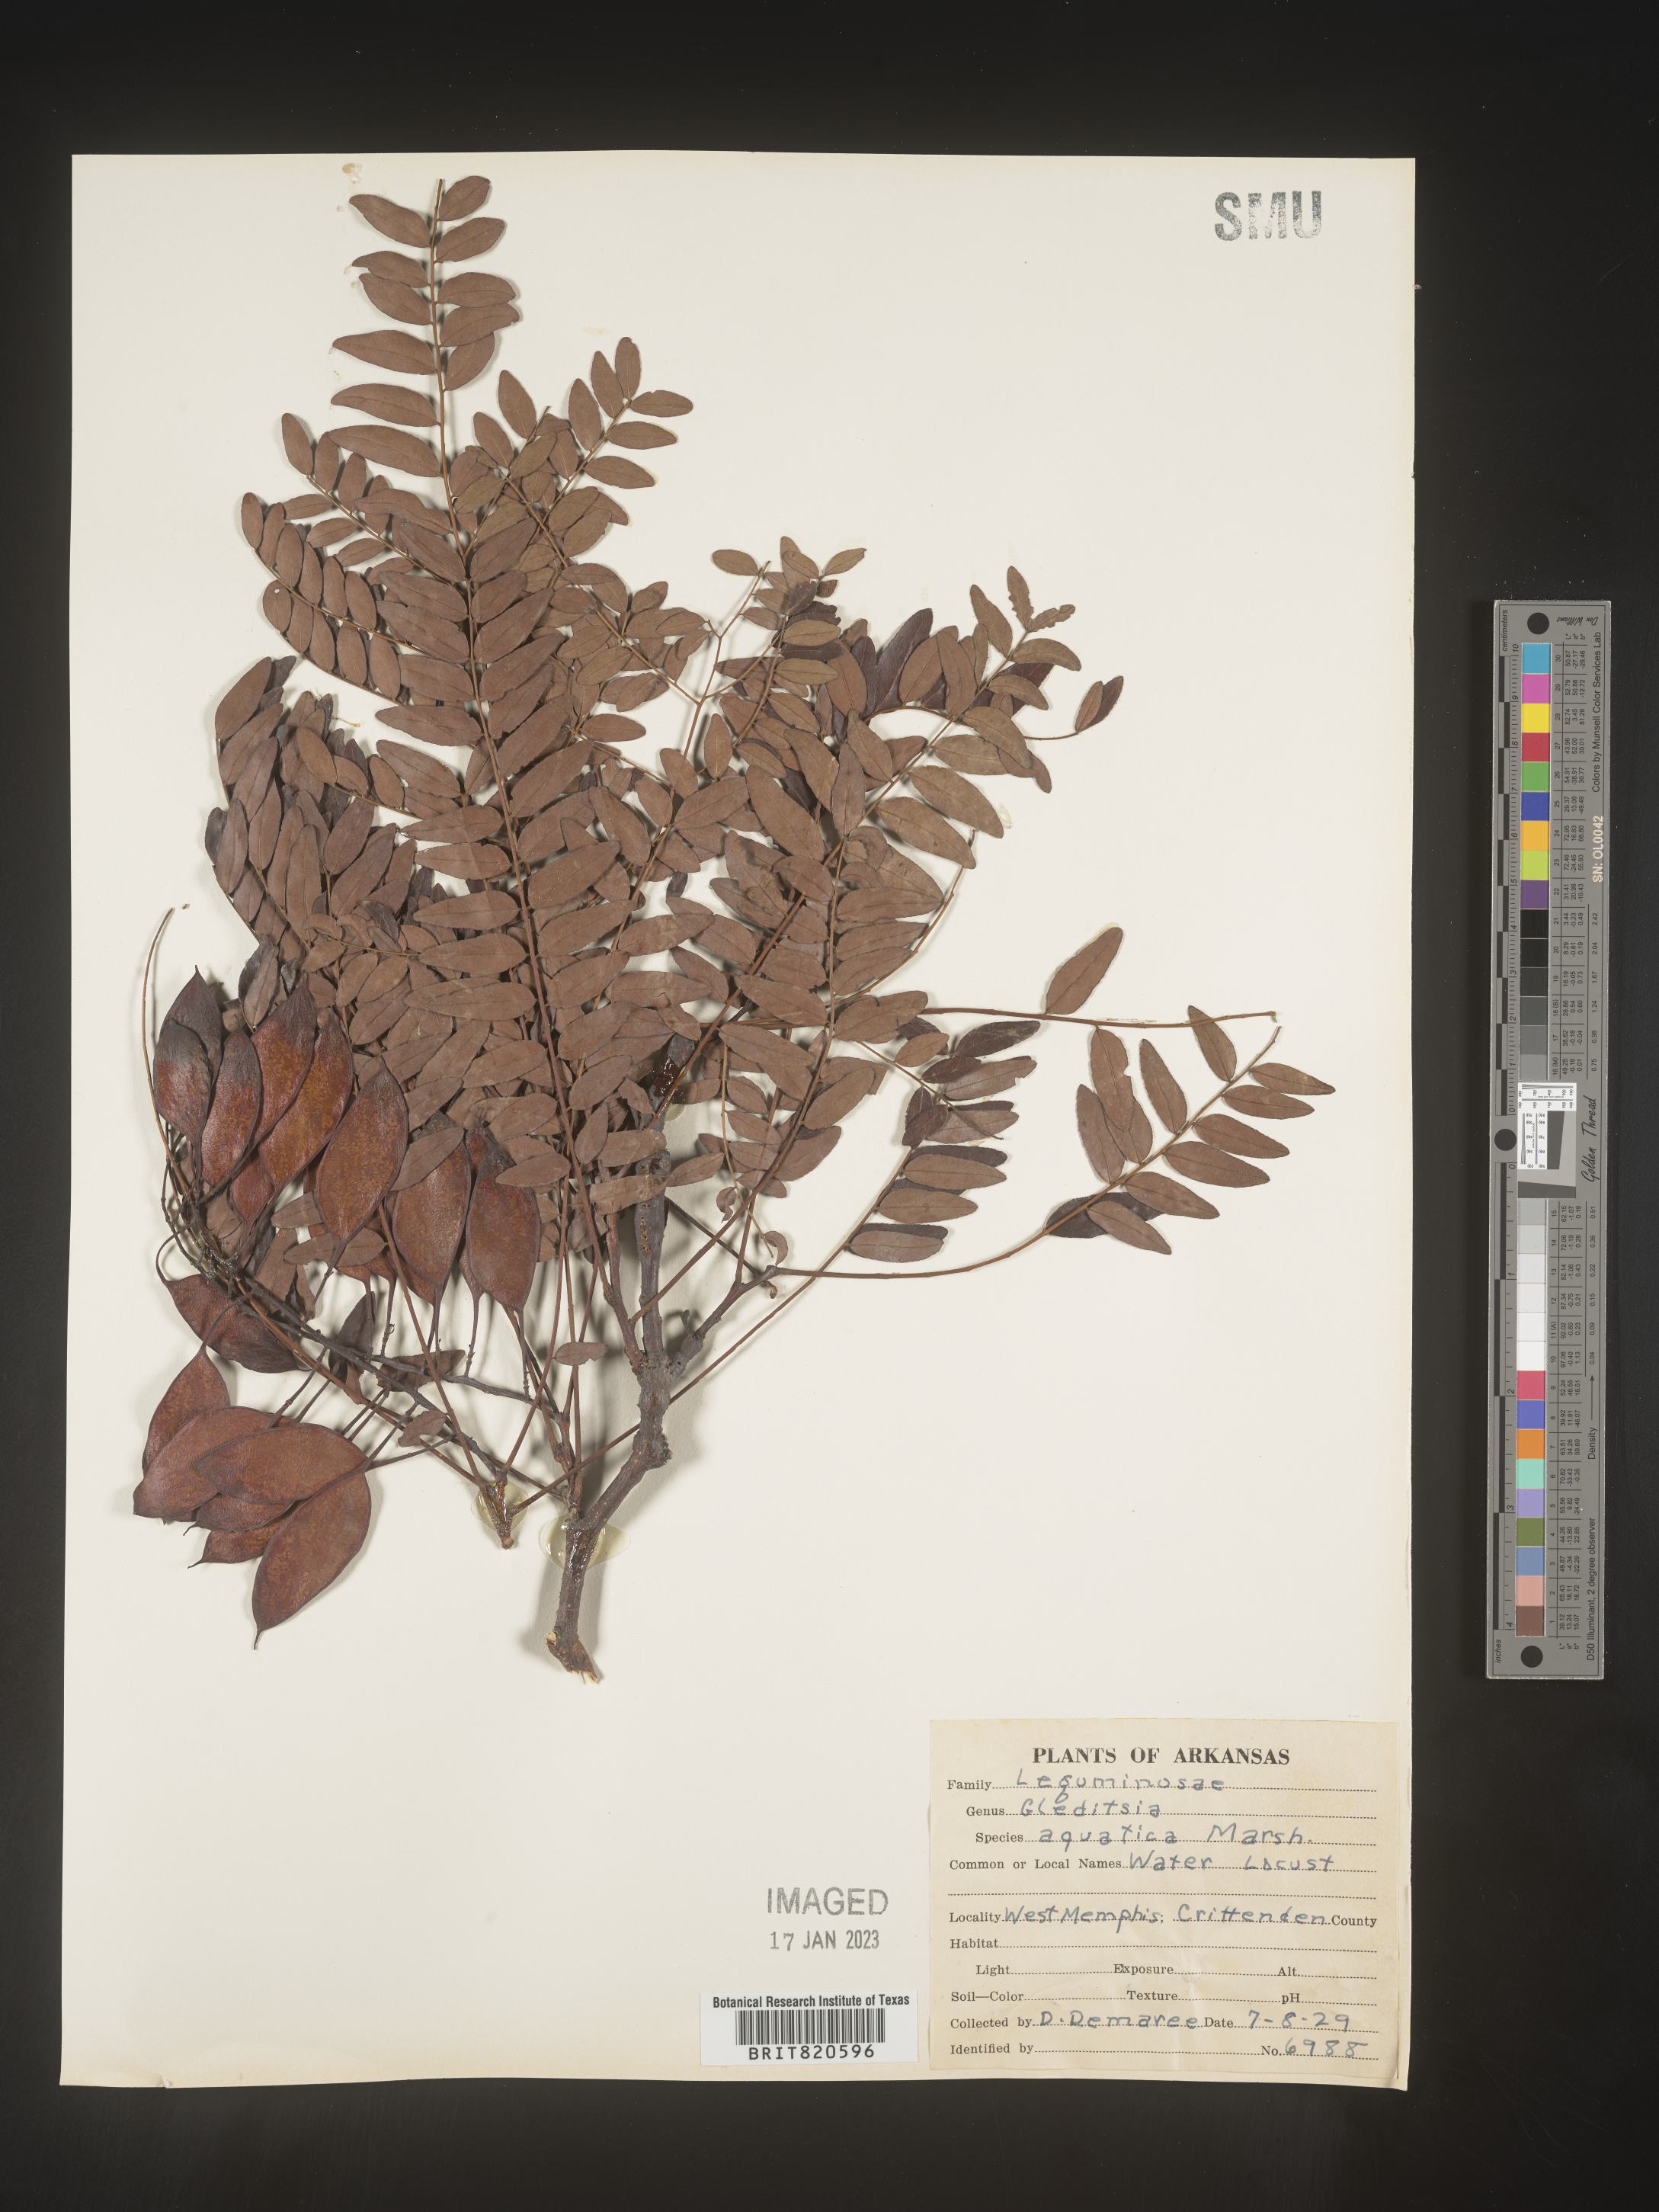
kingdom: Plantae
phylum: Tracheophyta
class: Magnoliopsida
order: Fabales
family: Fabaceae
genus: Gleditsia
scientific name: Gleditsia aquatica
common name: Swamp-locust
